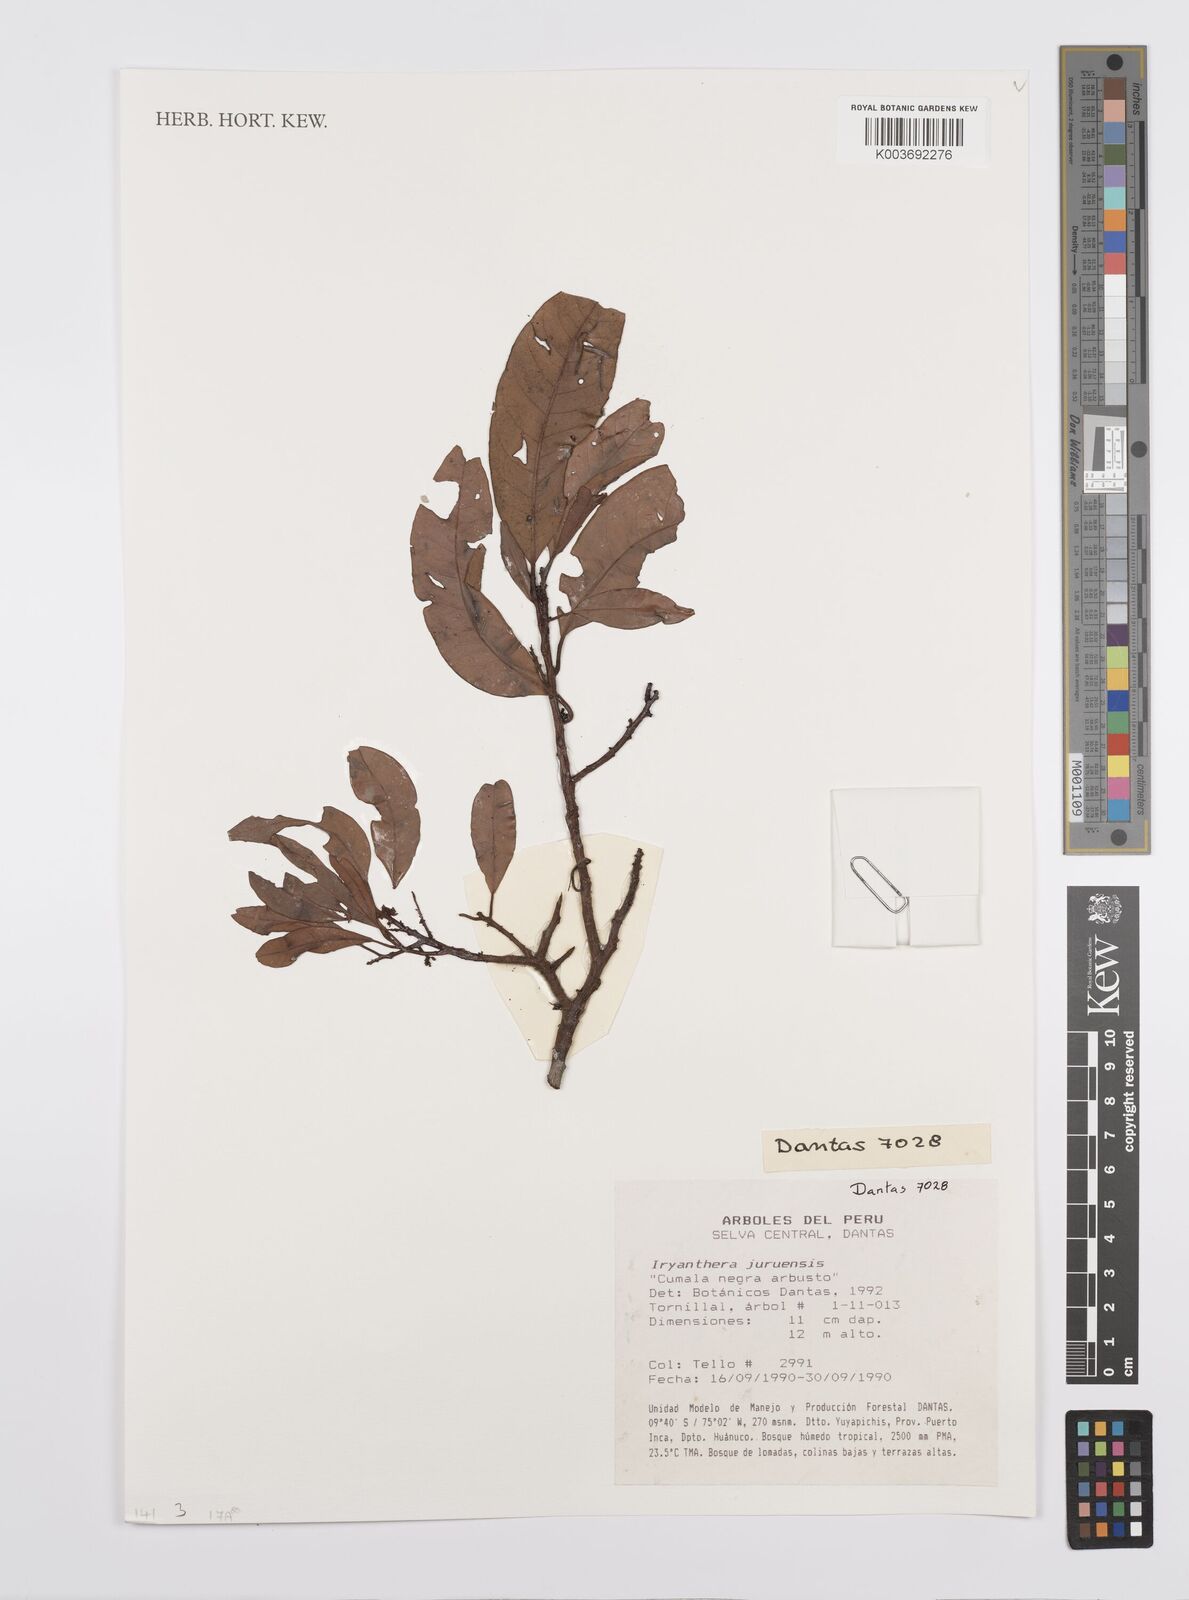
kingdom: Plantae
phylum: Tracheophyta
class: Magnoliopsida
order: Magnoliales
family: Myristicaceae
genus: Iryanthera
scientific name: Iryanthera juruensis
